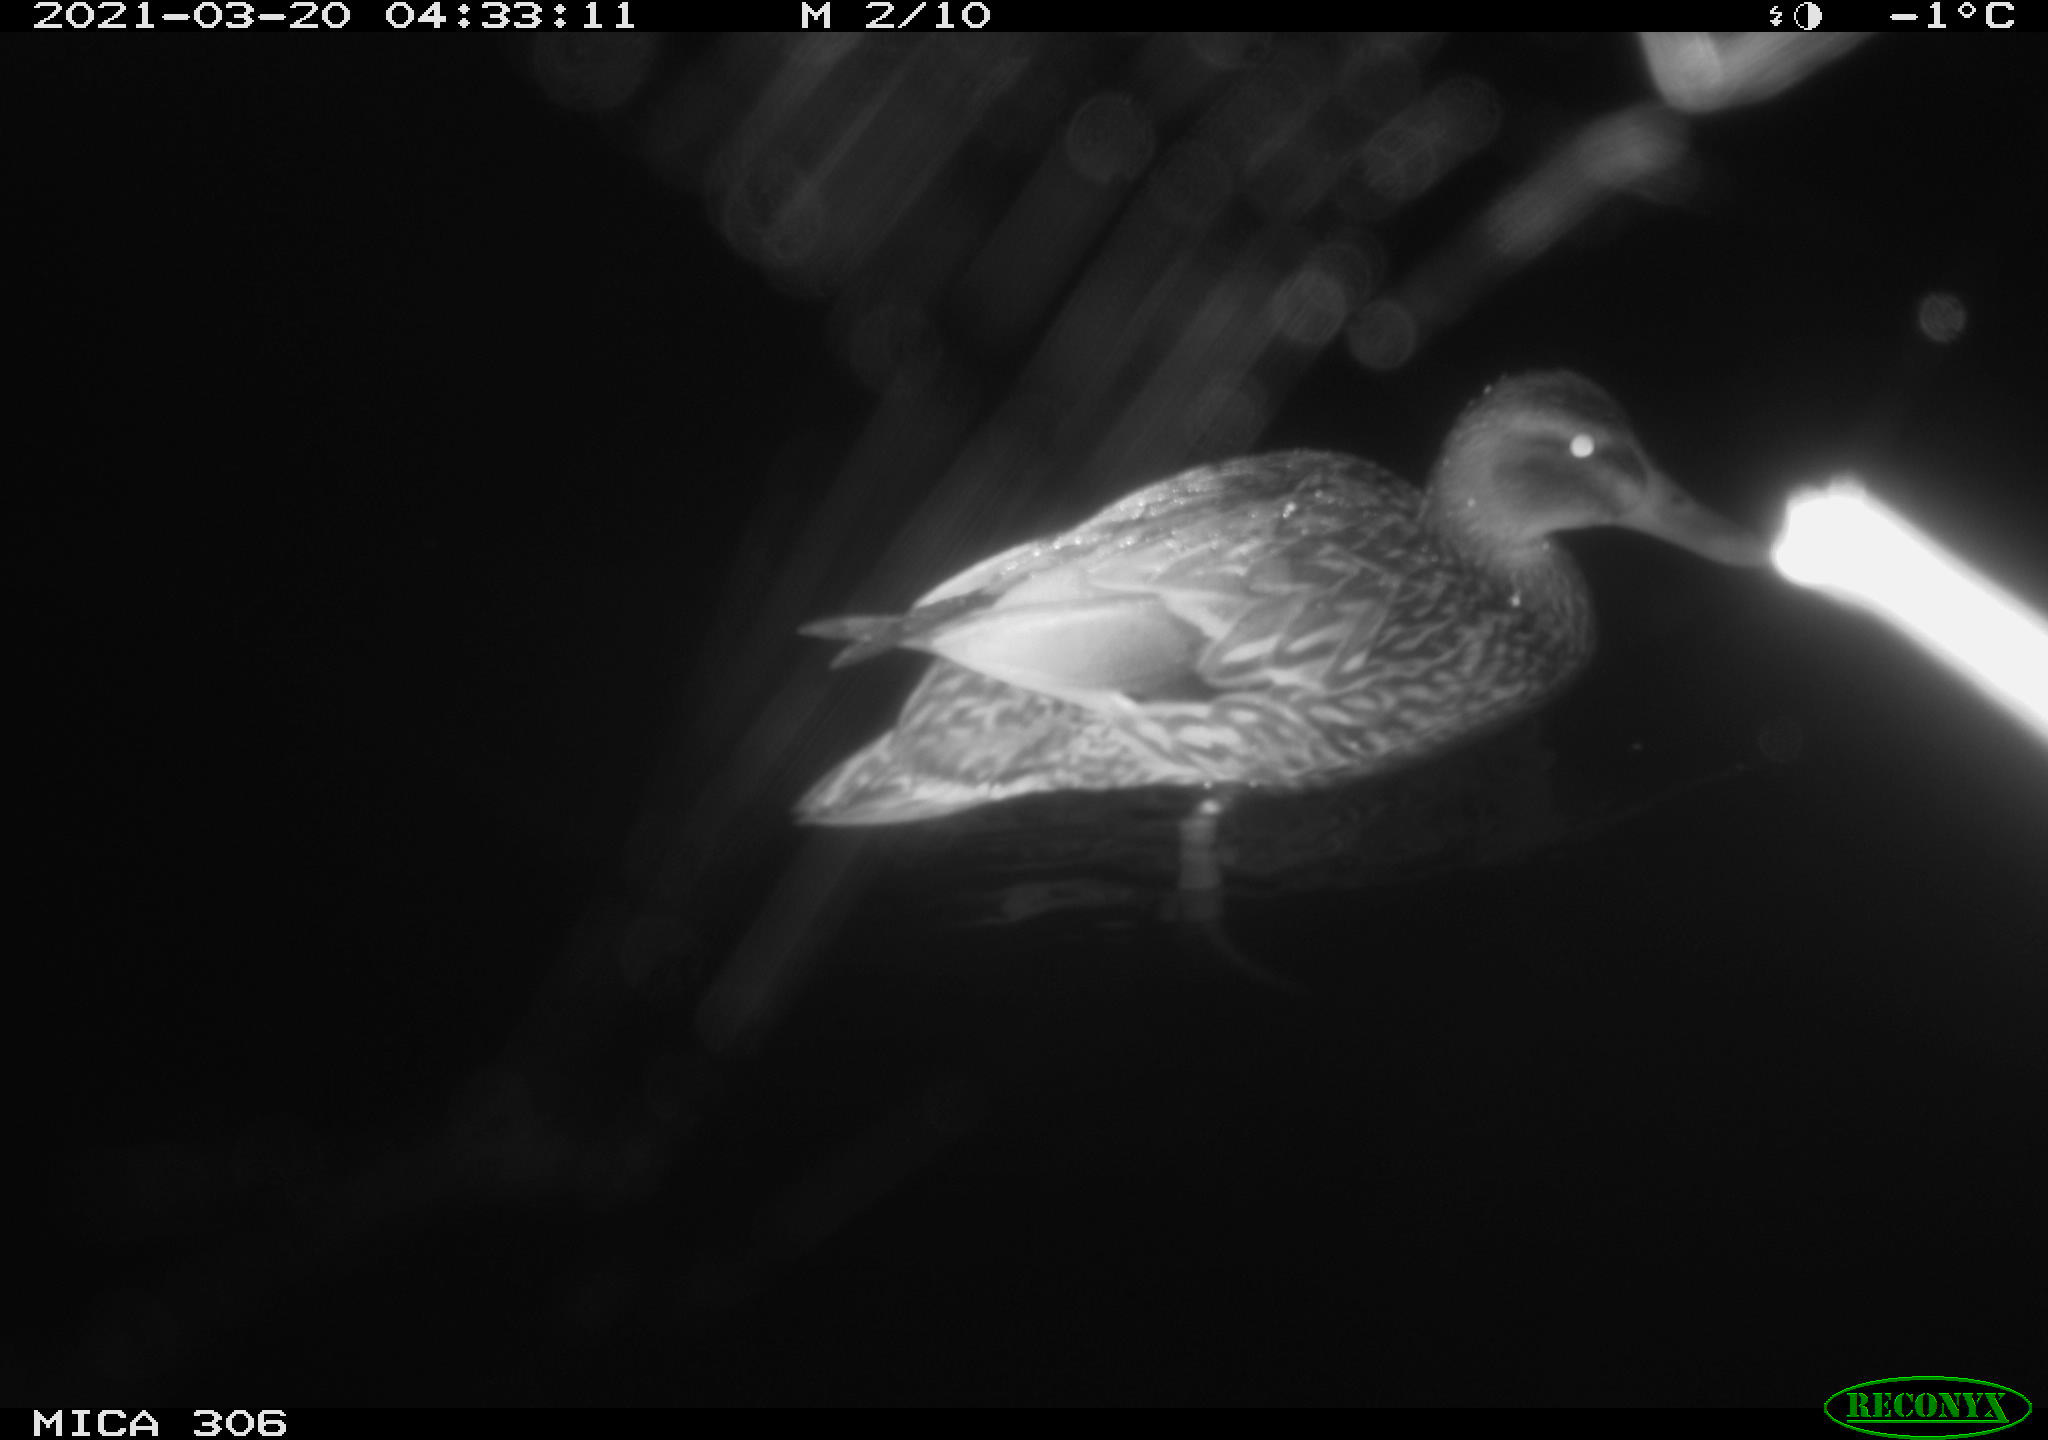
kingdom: Animalia
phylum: Chordata
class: Aves
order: Anseriformes
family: Anatidae
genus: Anas
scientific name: Anas platyrhynchos
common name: Mallard
